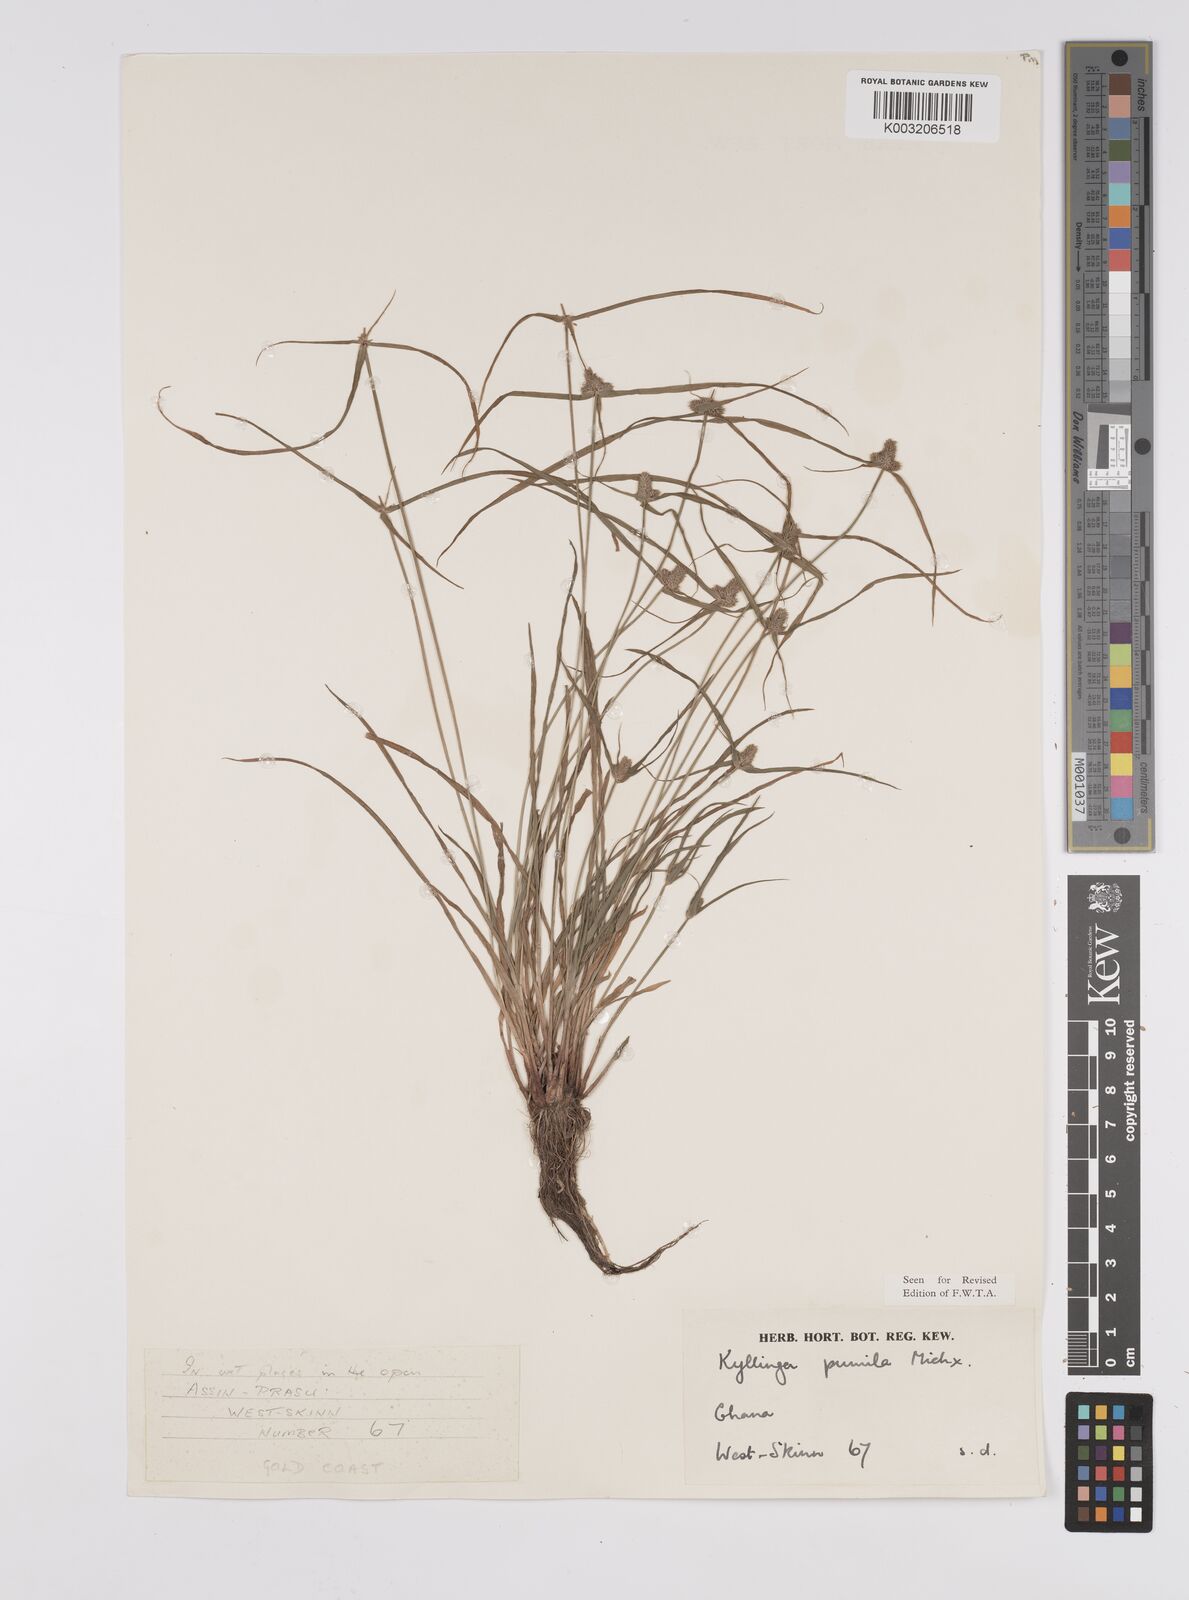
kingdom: Plantae
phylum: Tracheophyta
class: Liliopsida
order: Poales
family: Cyperaceae
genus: Cyperus
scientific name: Cyperus
